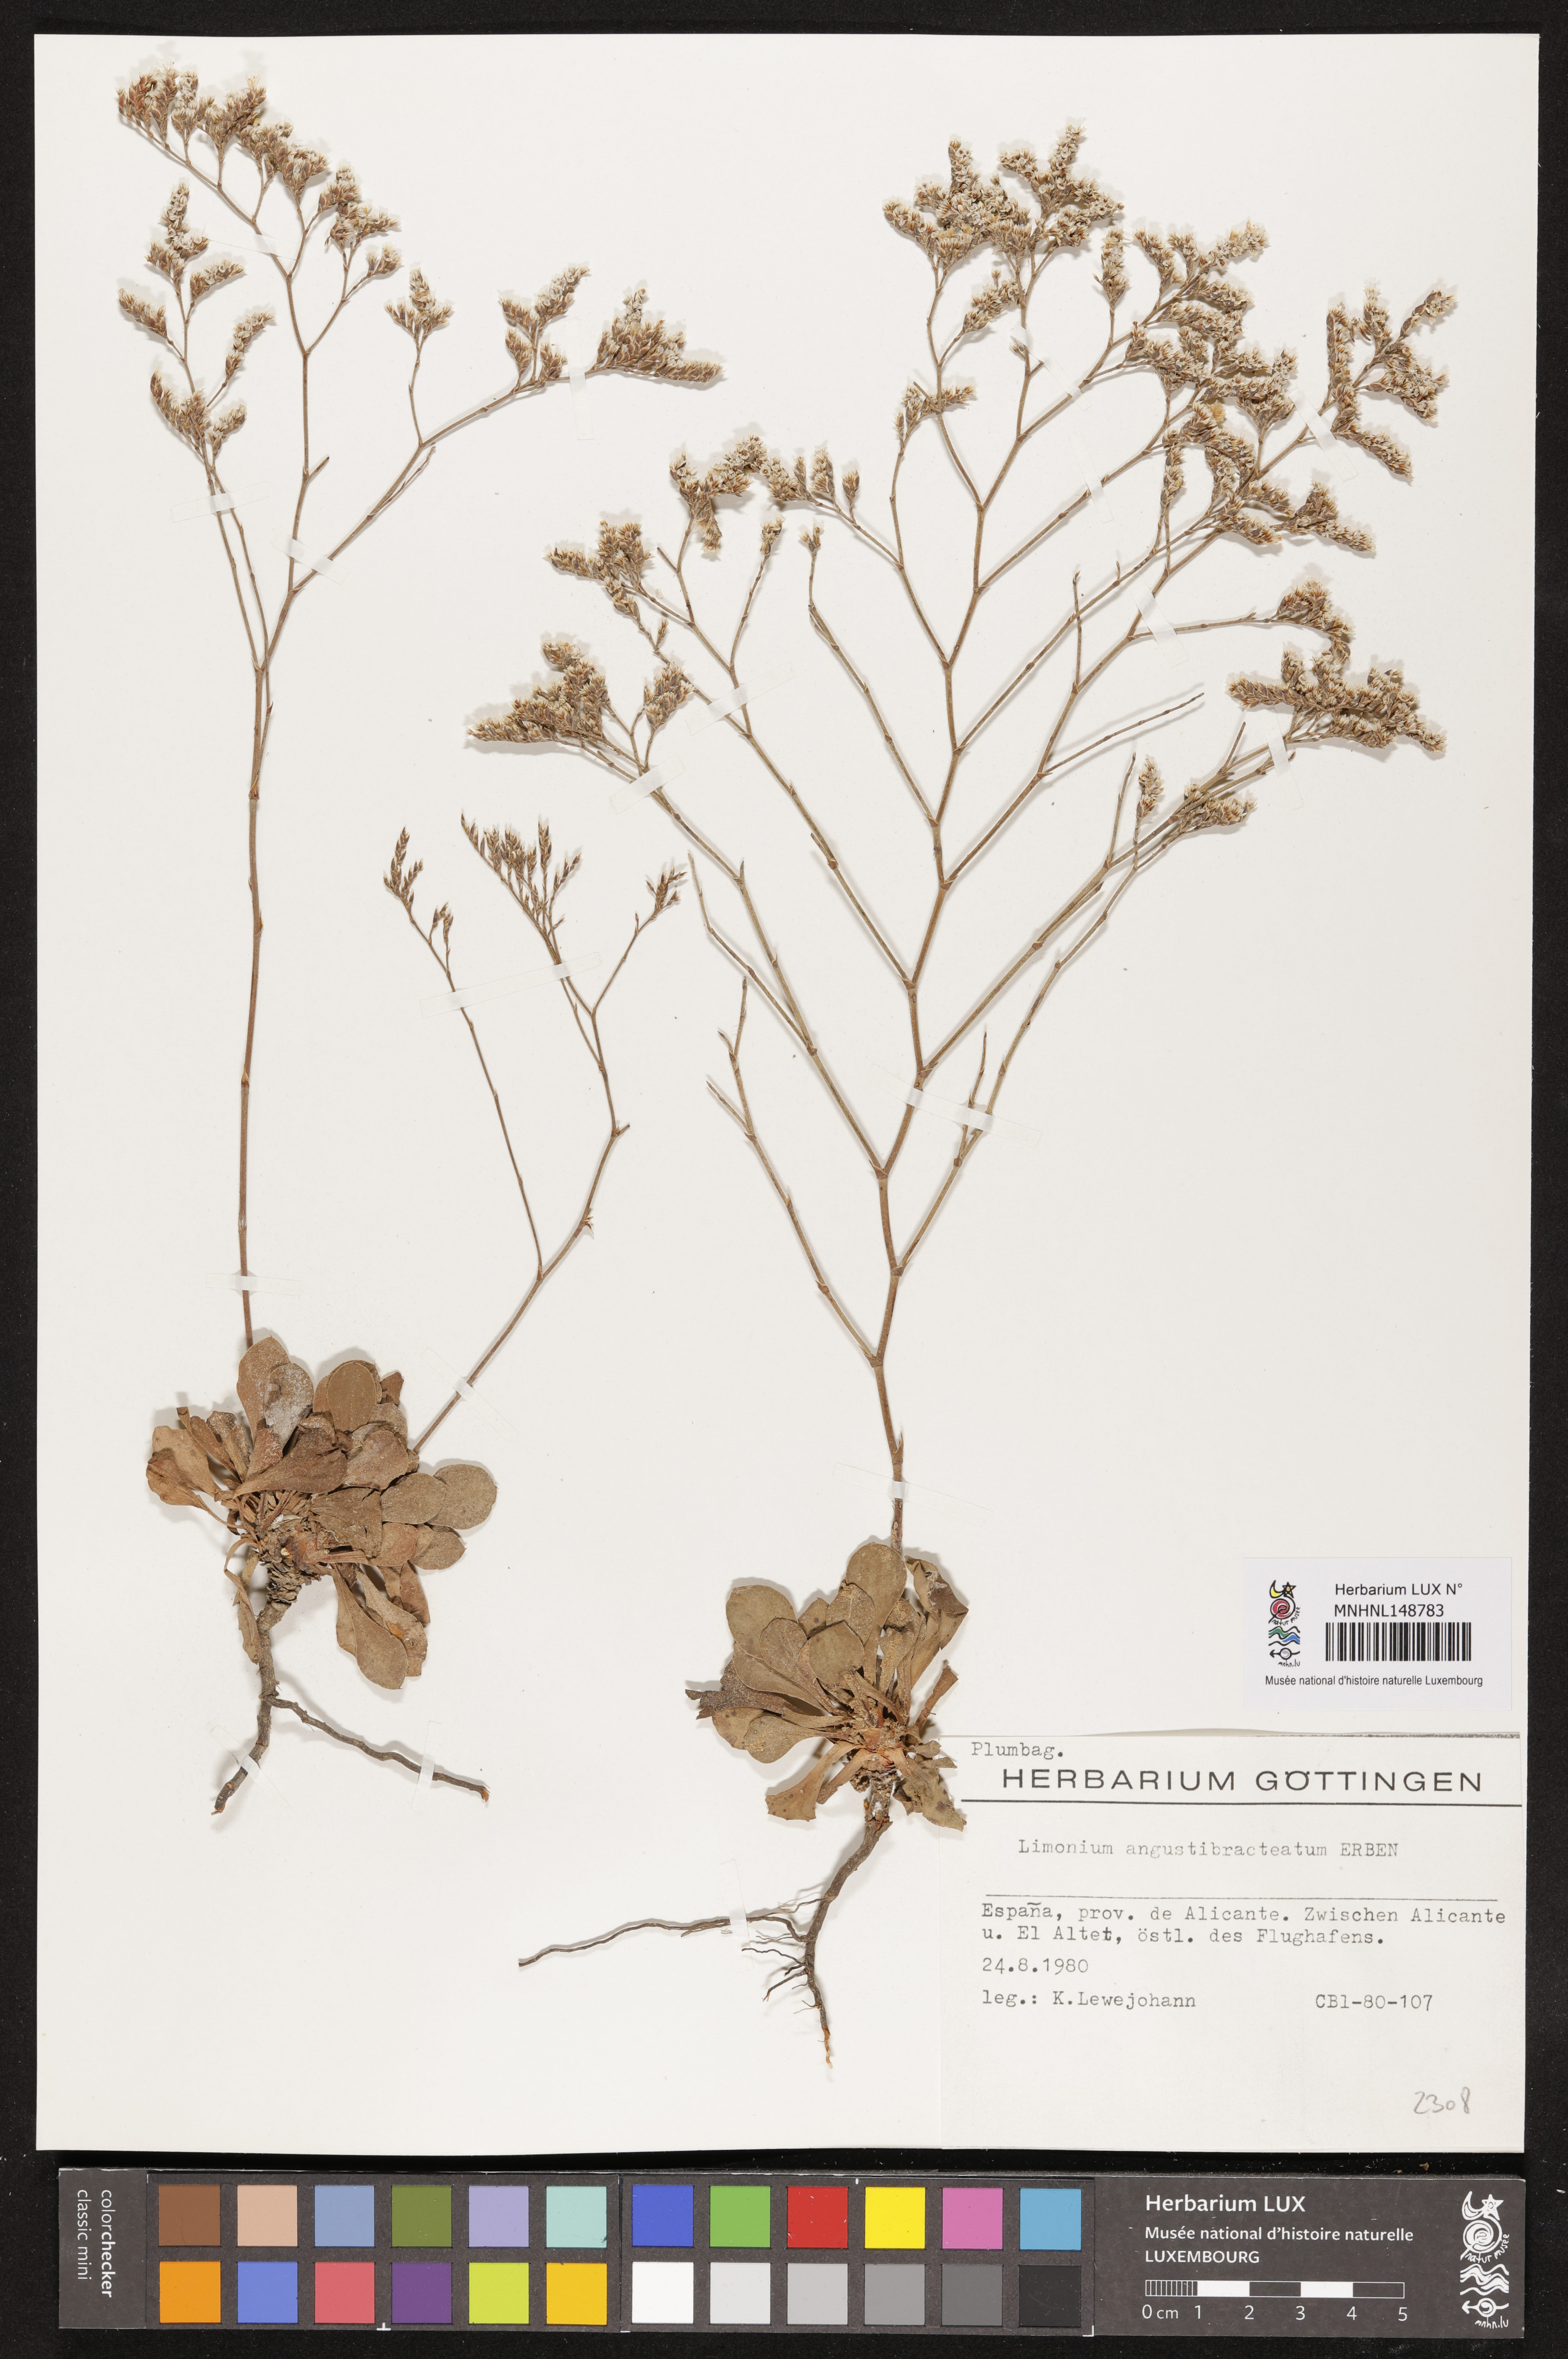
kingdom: Plantae
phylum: Tracheophyta
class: Magnoliopsida
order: Caryophyllales
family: Plumbaginaceae
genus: Limonium
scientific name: Limonium angustebracteatum
